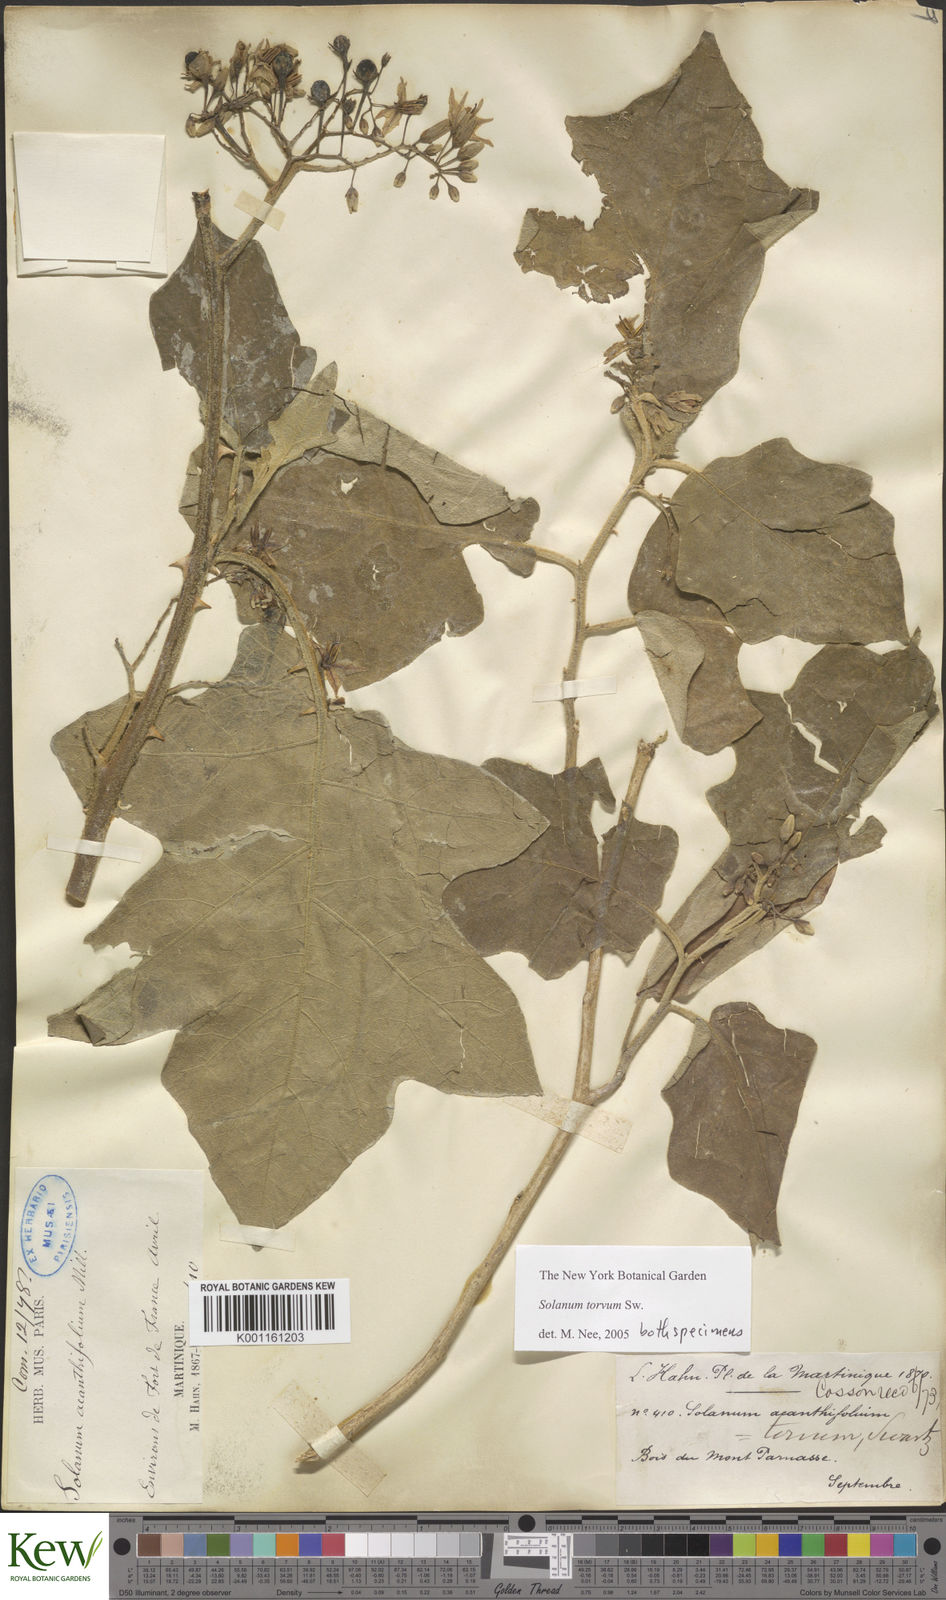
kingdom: Plantae
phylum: Tracheophyta
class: Magnoliopsida
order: Solanales
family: Solanaceae
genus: Solanum
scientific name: Solanum torvum
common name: Turkey berry
